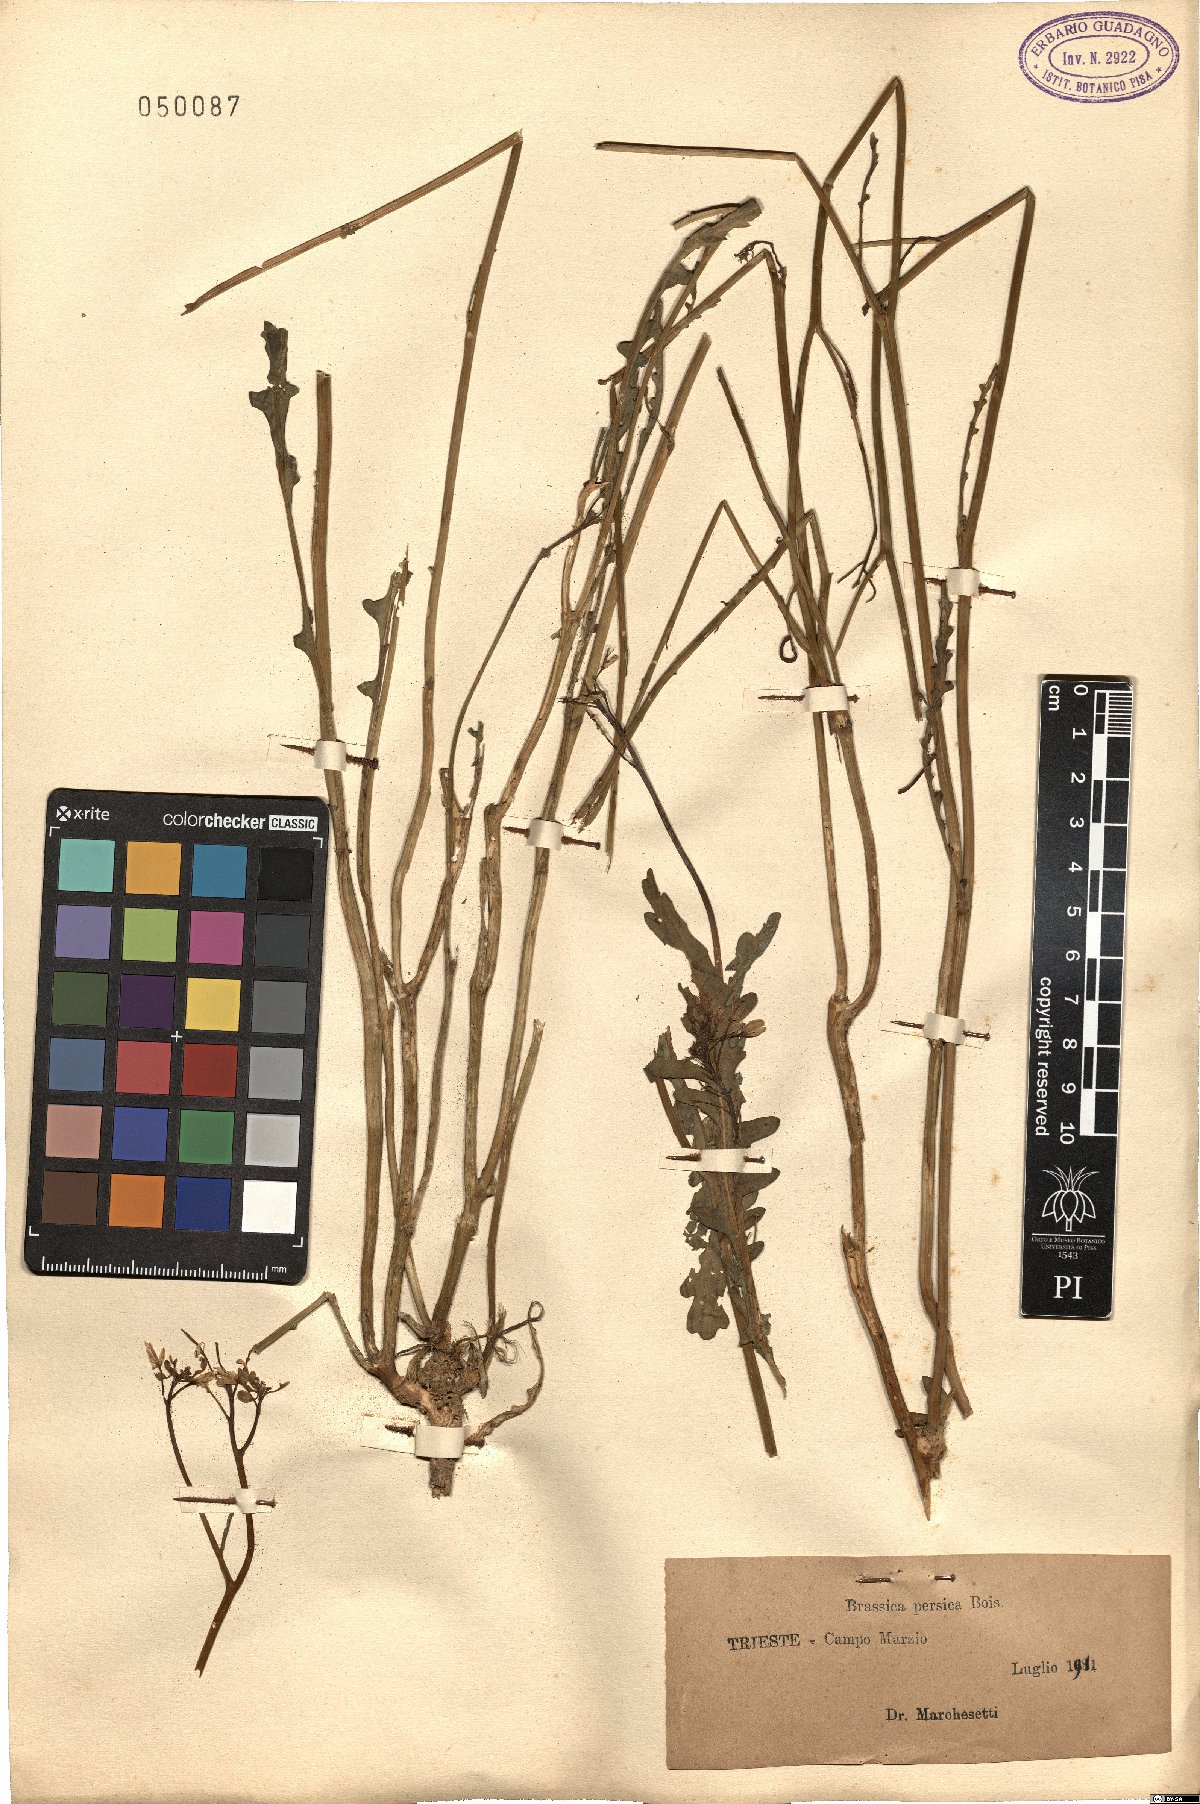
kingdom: Plantae
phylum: Tracheophyta
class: Magnoliopsida
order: Brassicales
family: Brassicaceae
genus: Guenthera
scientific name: Guenthera persica
